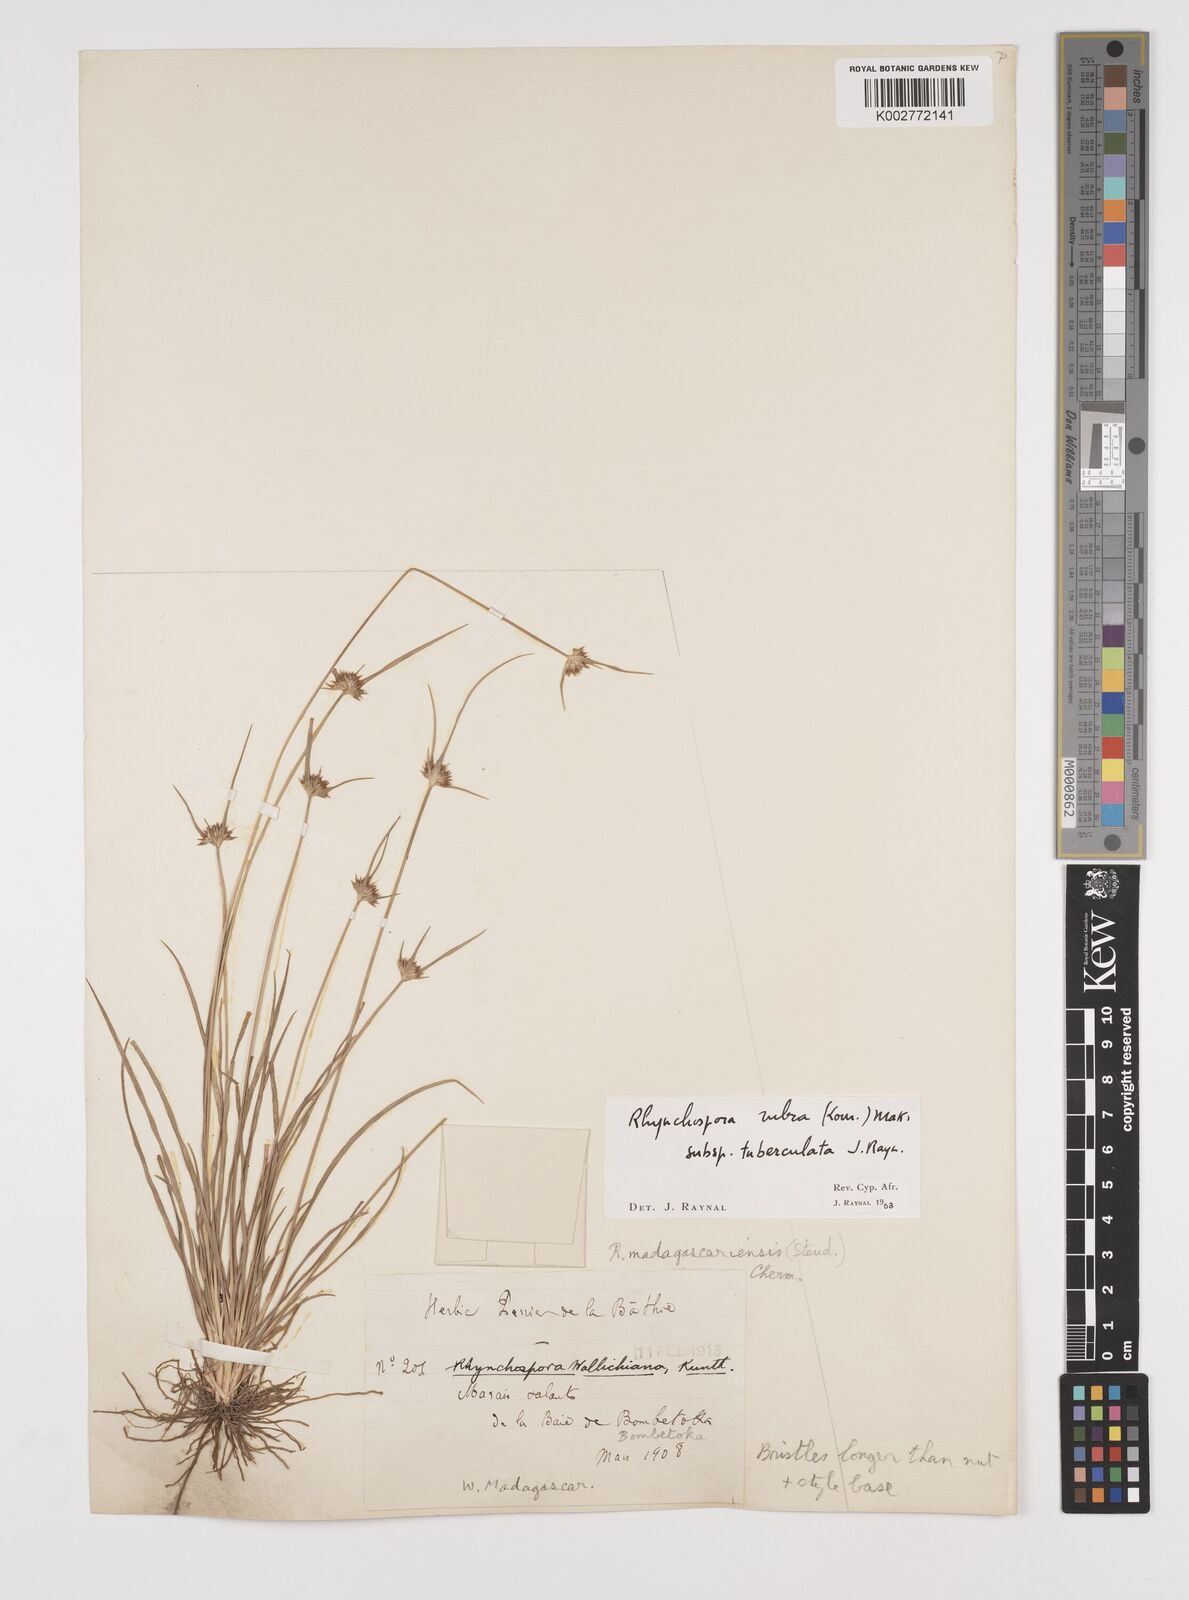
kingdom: Plantae
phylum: Tracheophyta
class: Liliopsida
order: Poales
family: Cyperaceae
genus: Rhynchospora
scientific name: Rhynchospora rubra
